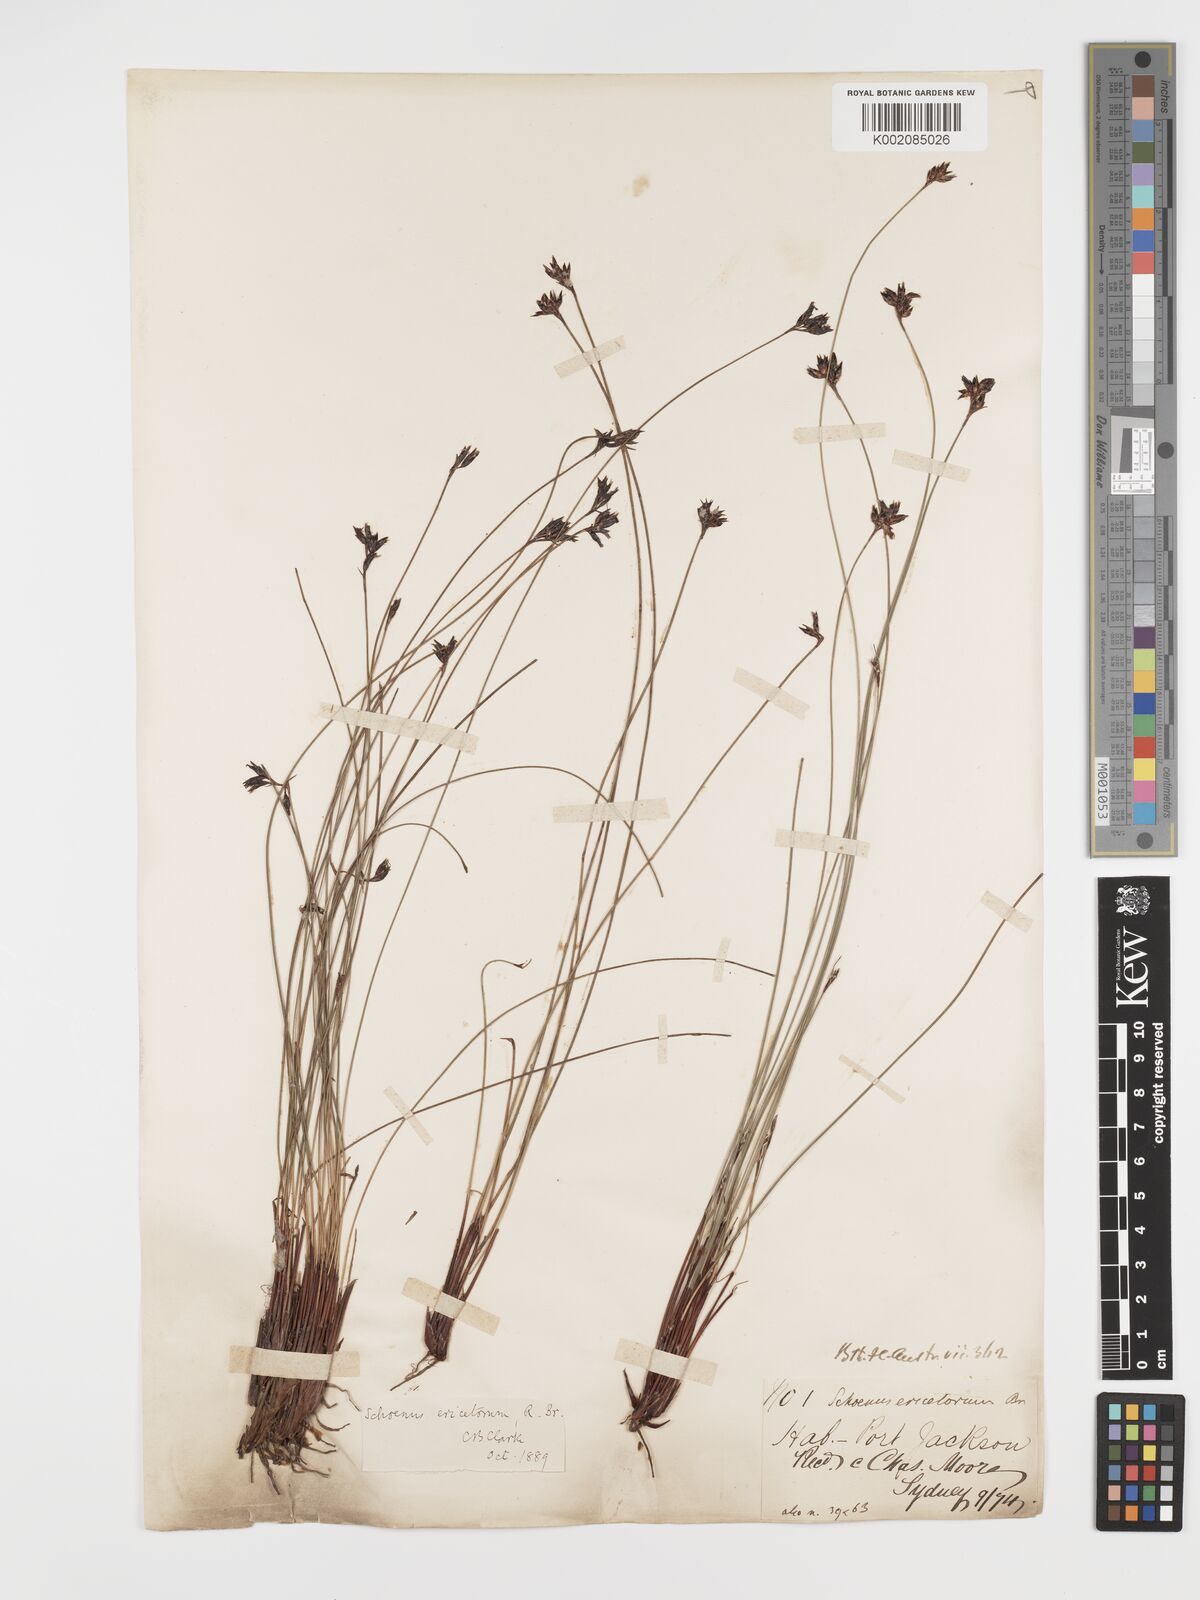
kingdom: Plantae
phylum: Tracheophyta
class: Liliopsida
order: Poales
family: Cyperaceae
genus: Schoenus
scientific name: Schoenus ericetorum
